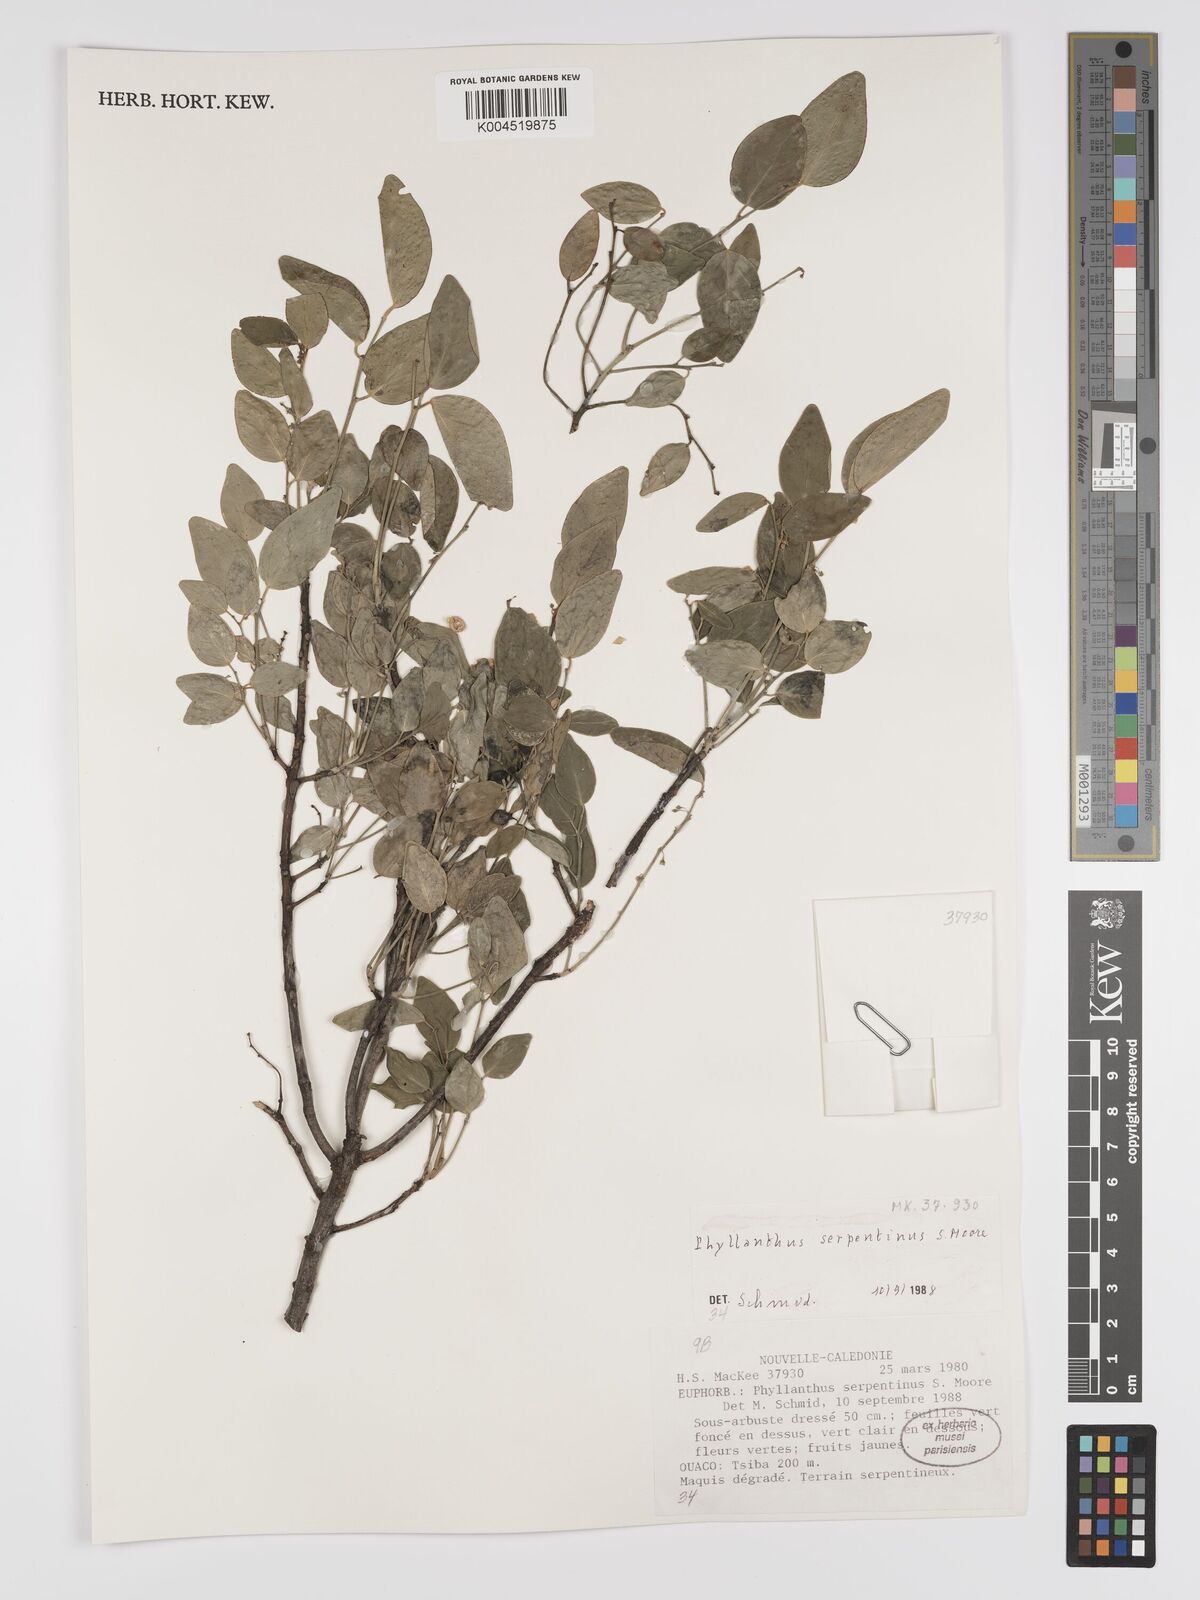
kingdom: Plantae
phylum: Tracheophyta
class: Magnoliopsida
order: Malpighiales
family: Phyllanthaceae
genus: Phyllanthus
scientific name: Phyllanthus serpentinus
